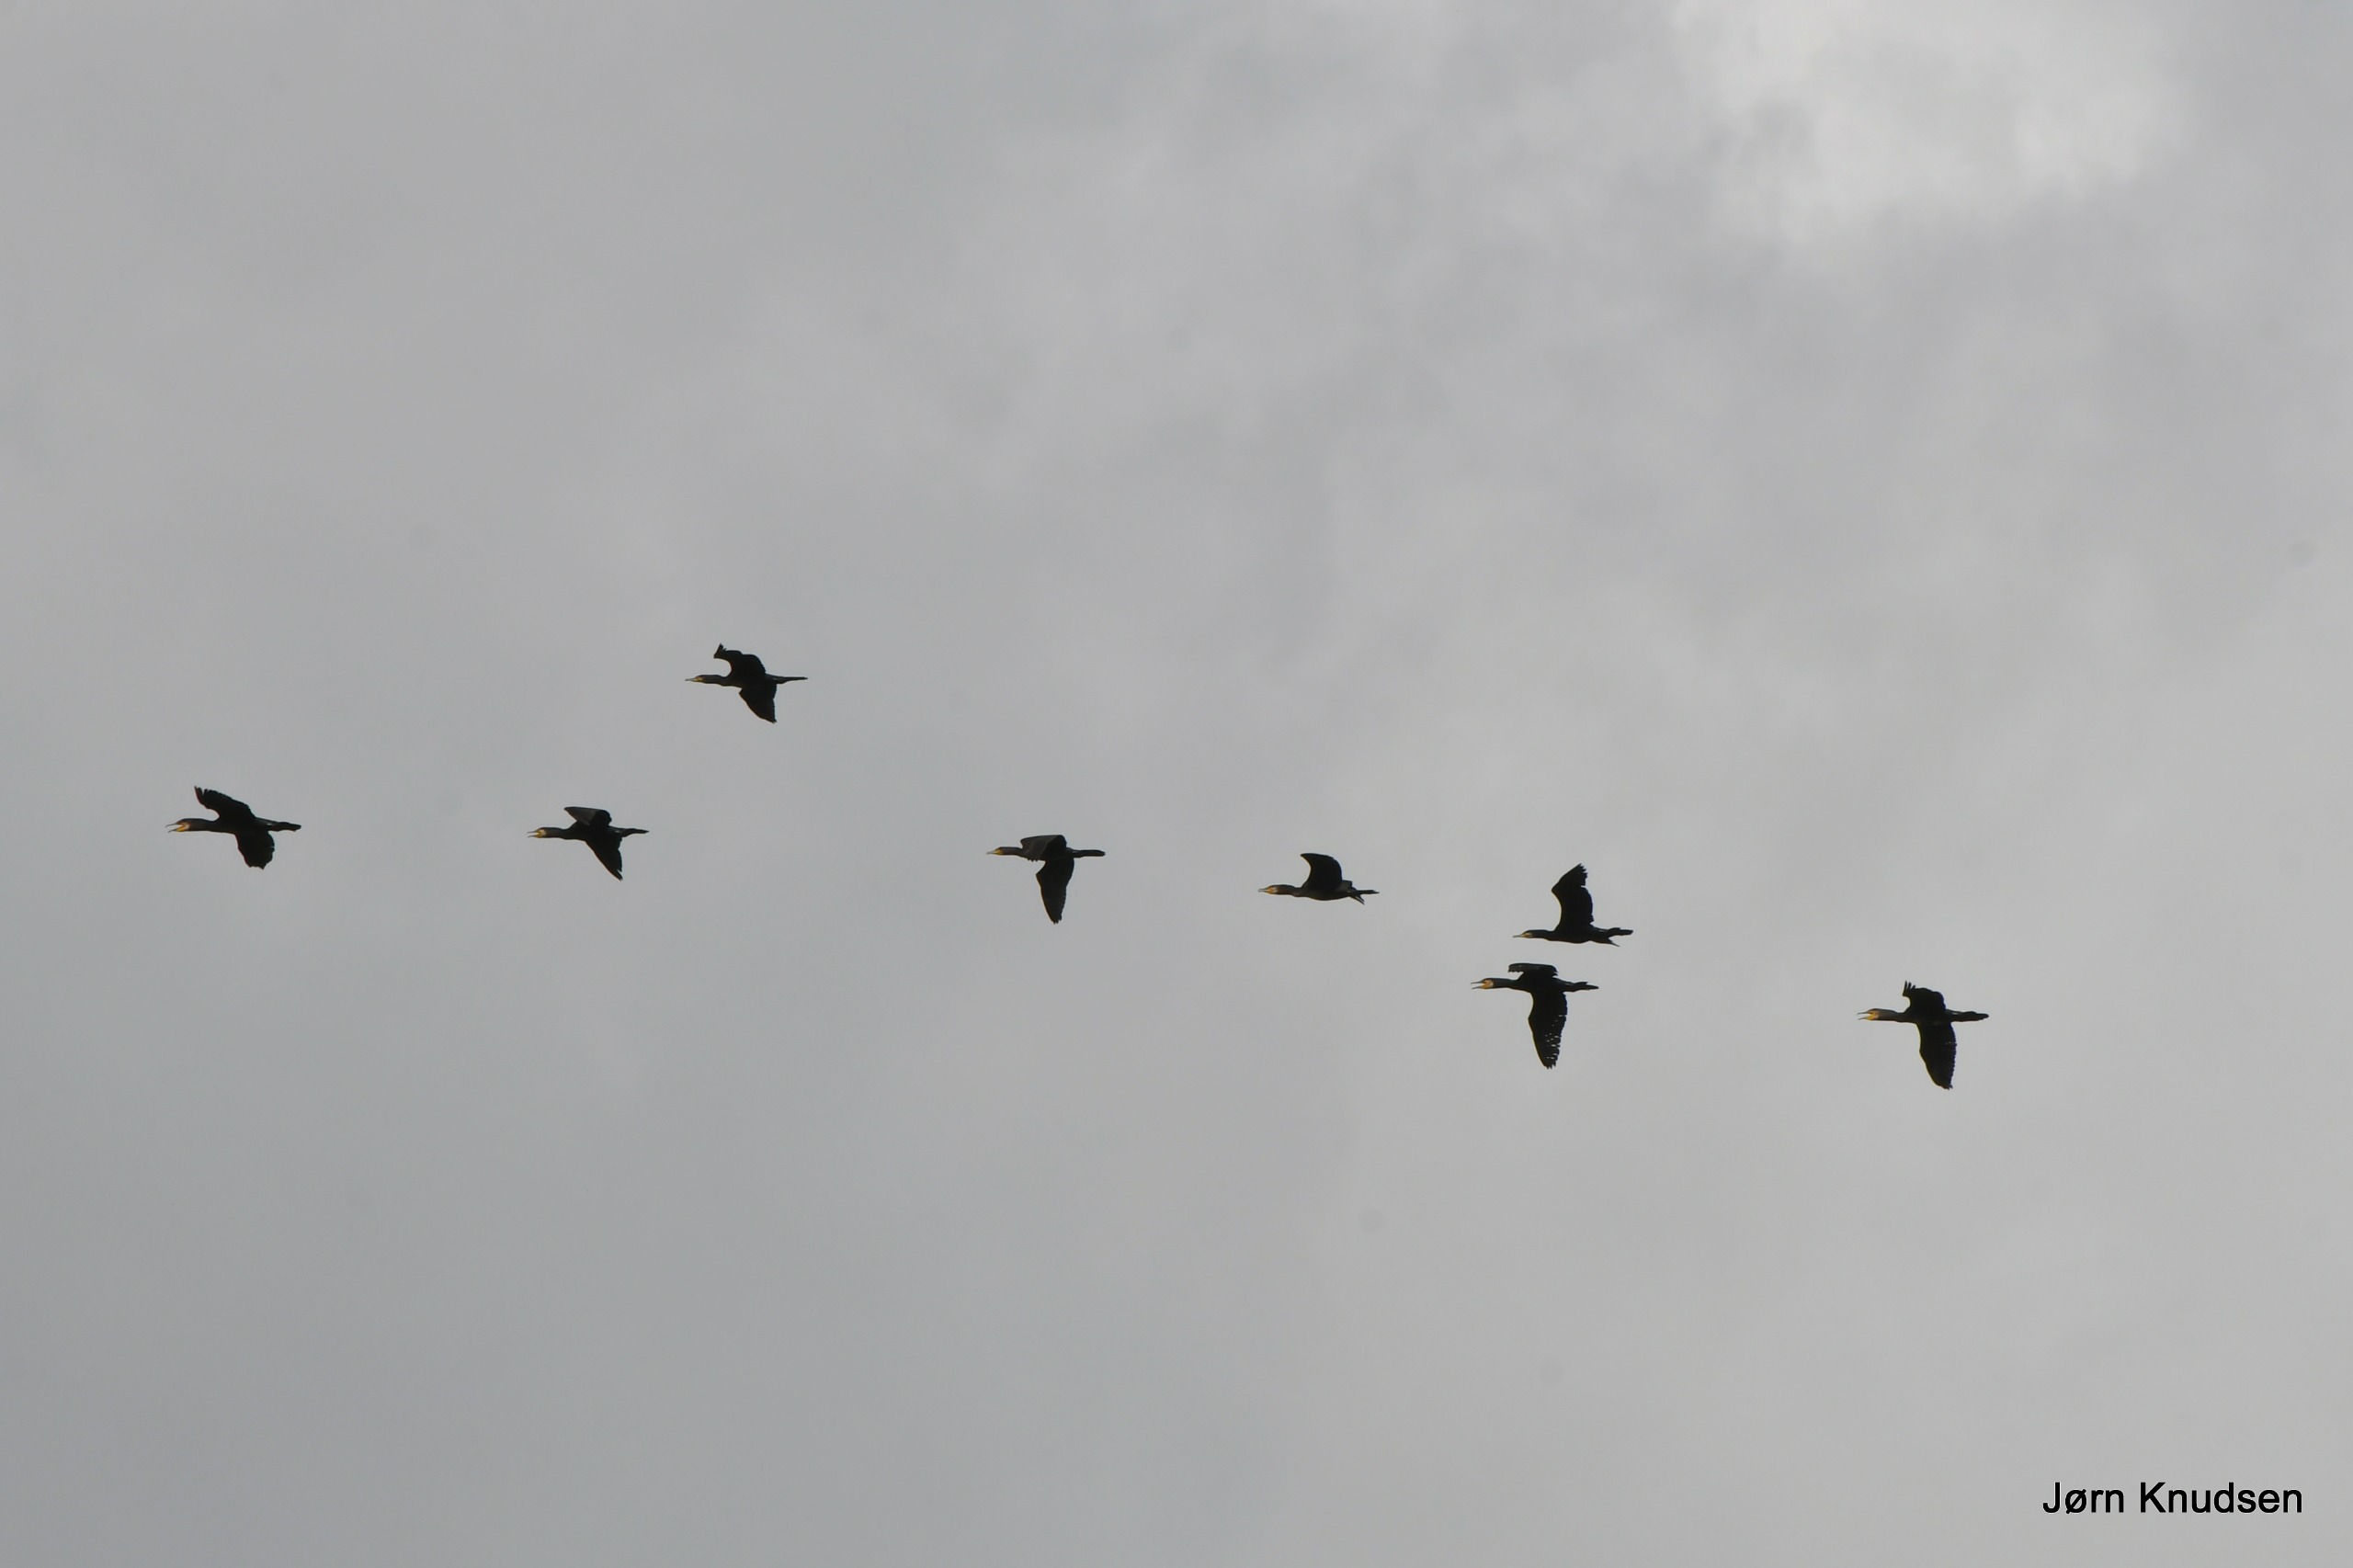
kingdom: Animalia
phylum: Chordata
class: Aves
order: Suliformes
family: Phalacrocoracidae
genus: Phalacrocorax
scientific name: Phalacrocorax carbo
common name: Skarv
